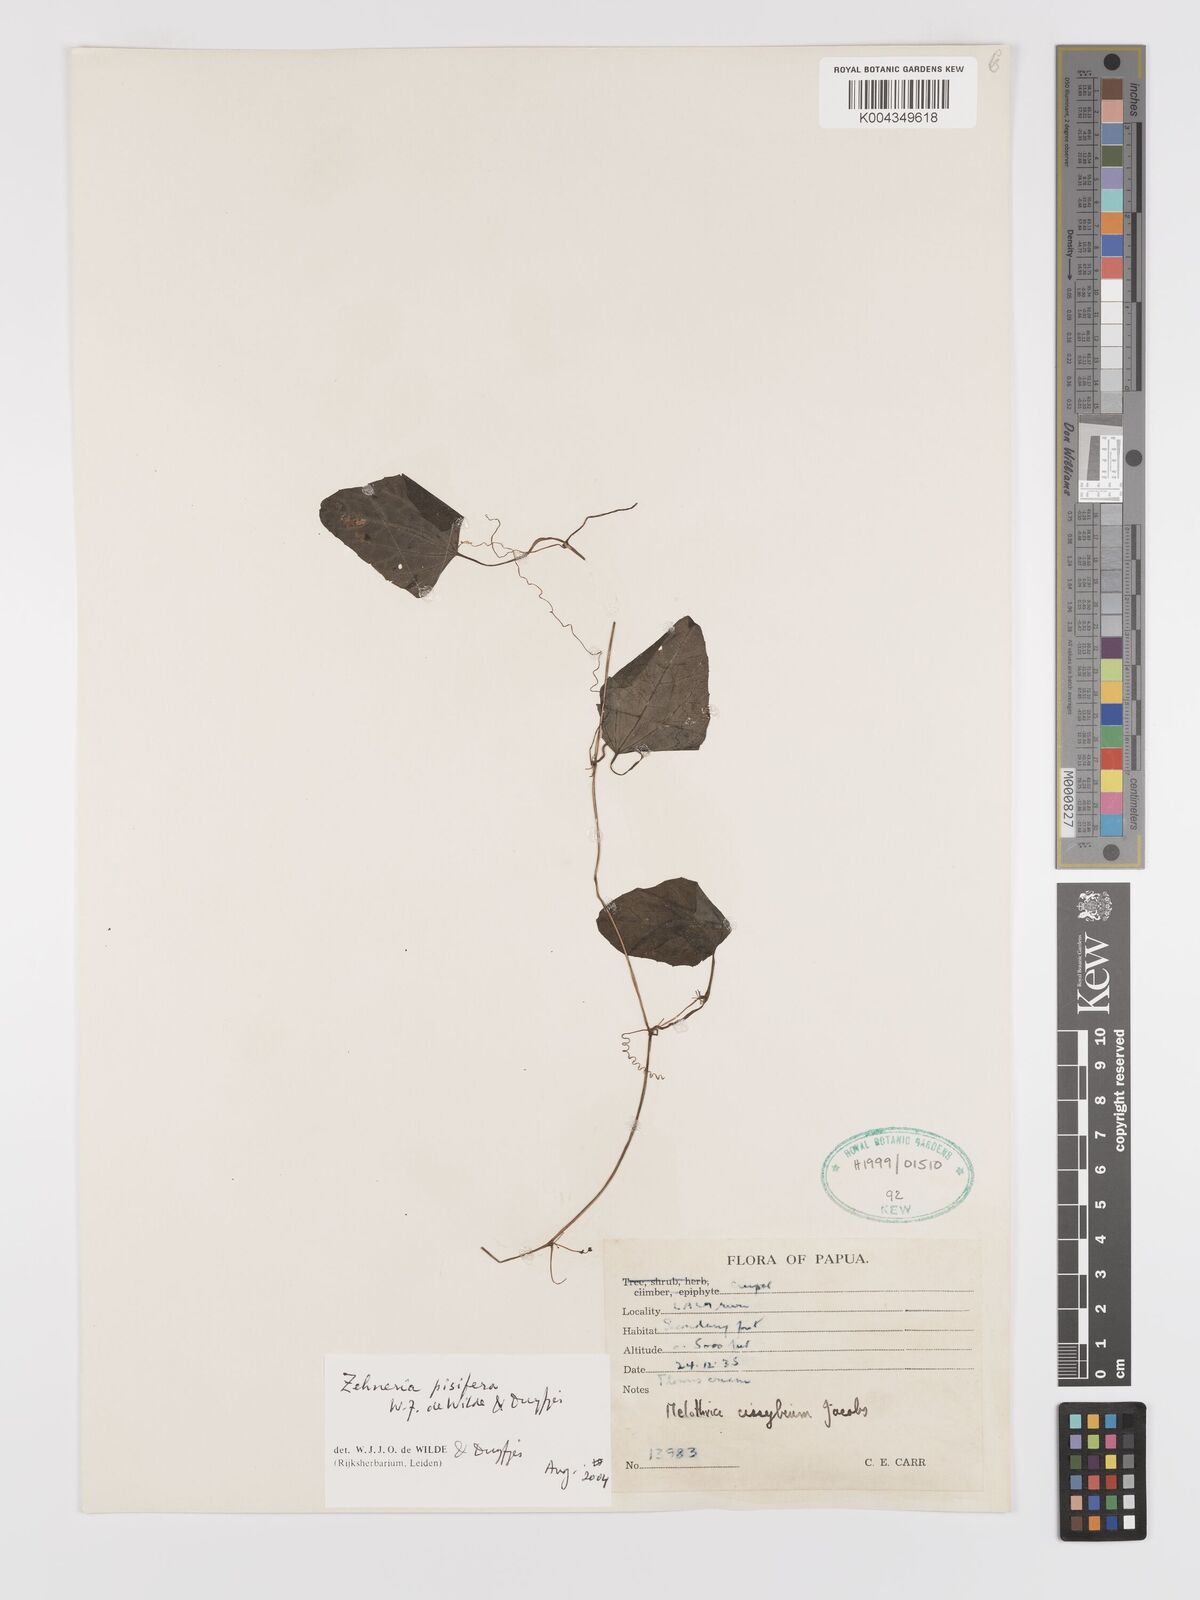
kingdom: Plantae
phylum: Tracheophyta
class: Magnoliopsida
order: Cucurbitales
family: Cucurbitaceae
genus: Zehneria
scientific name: Zehneria pisifera
